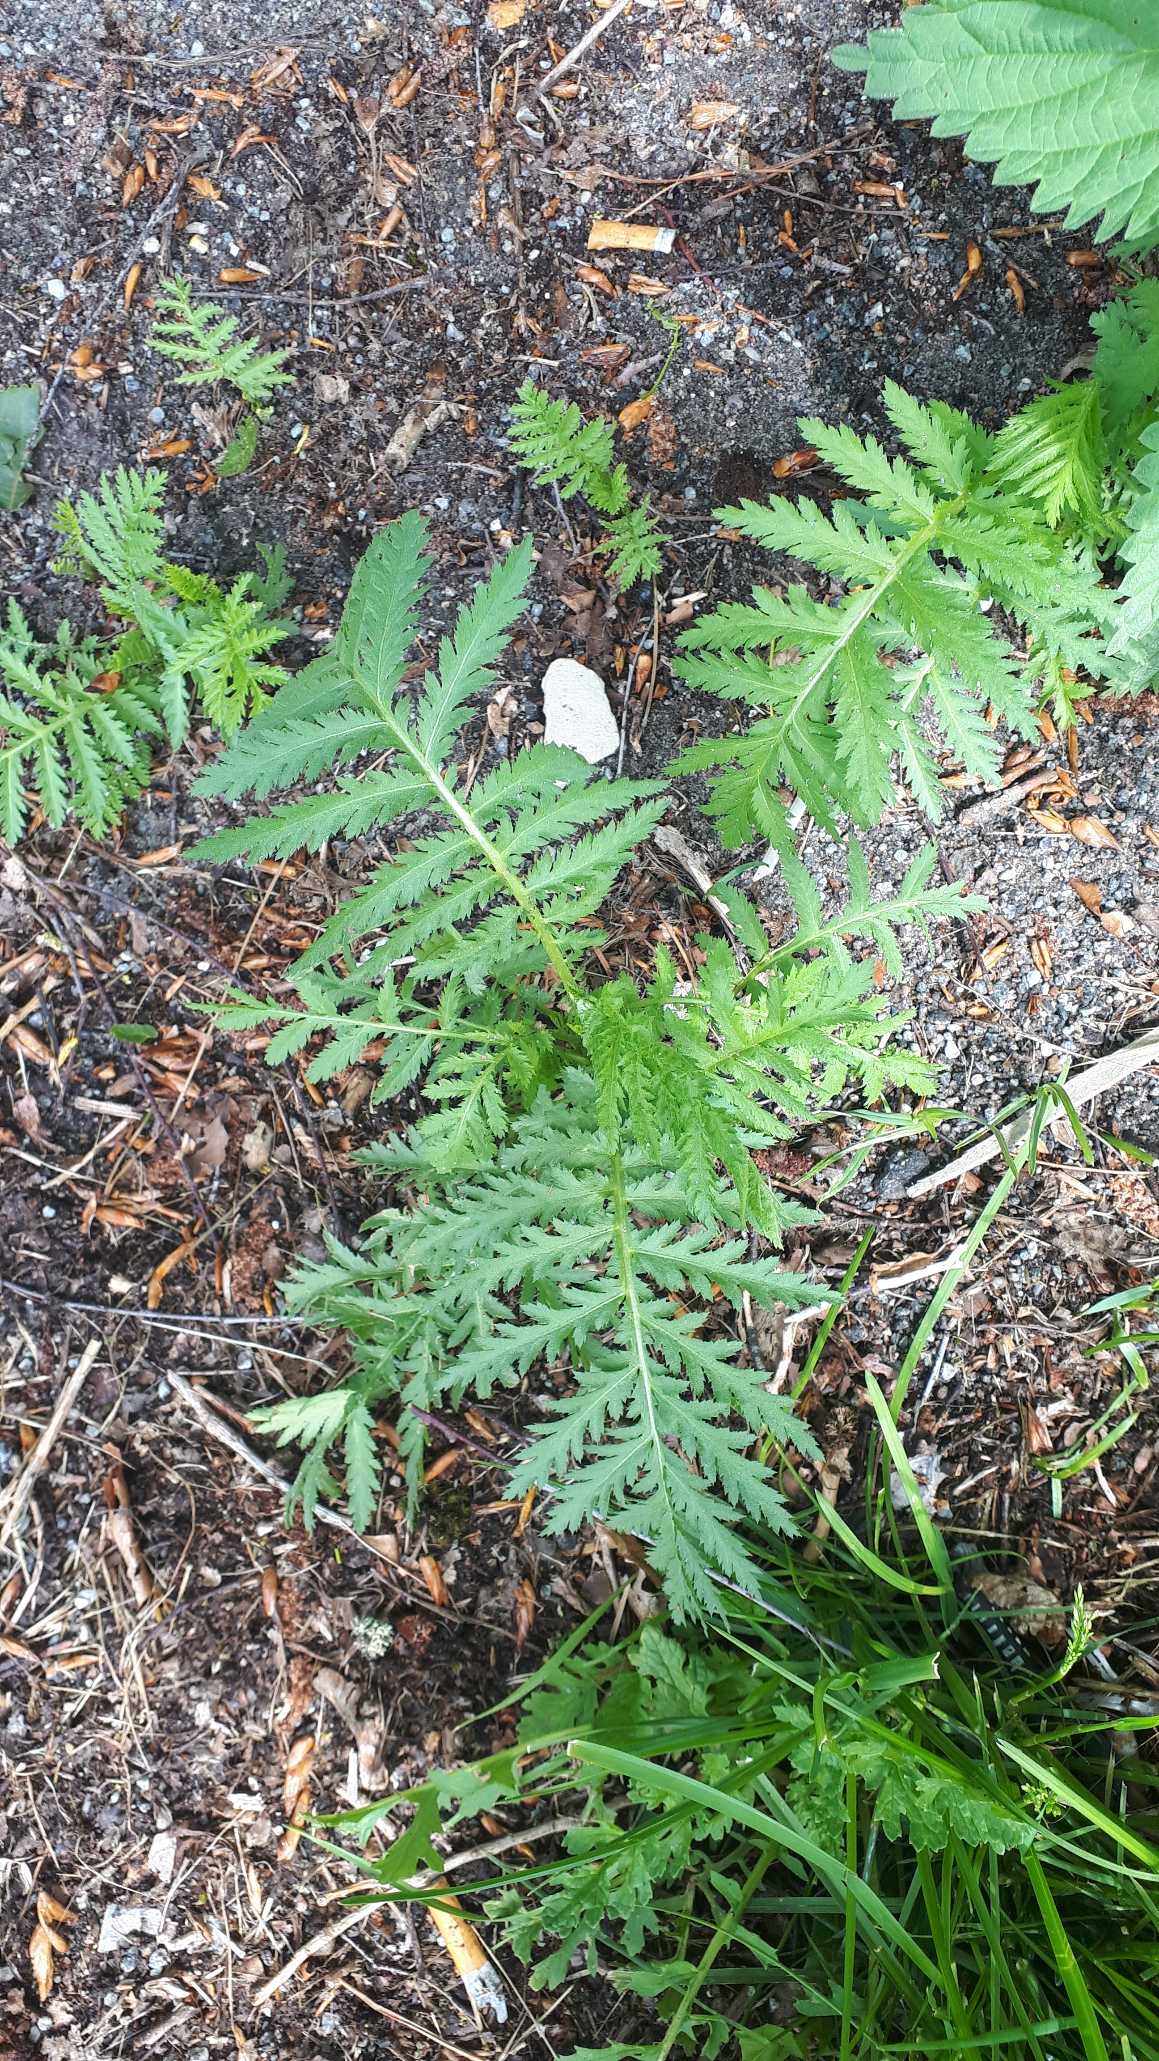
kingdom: Plantae
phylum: Tracheophyta
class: Magnoliopsida
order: Asterales
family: Asteraceae
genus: Tanacetum
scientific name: Tanacetum vulgare
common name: Rejnfan
